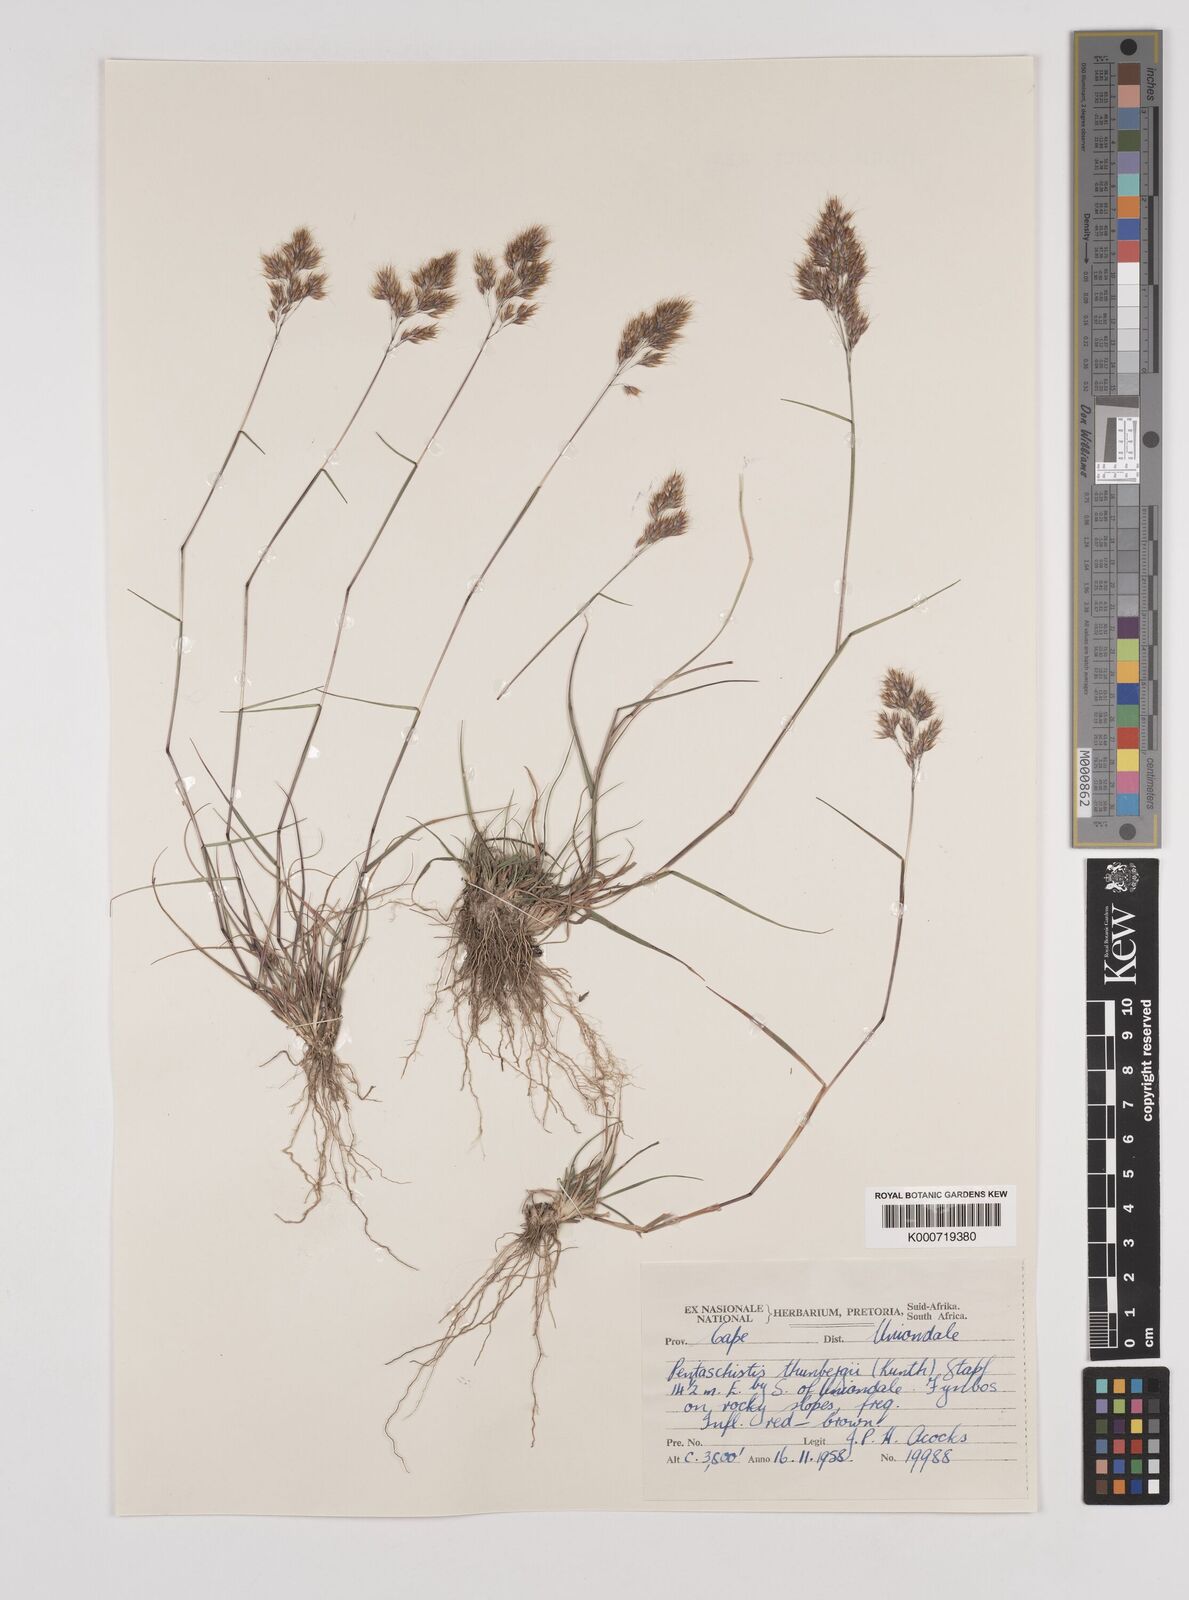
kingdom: Plantae
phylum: Tracheophyta
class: Liliopsida
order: Poales
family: Poaceae
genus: Pentameris
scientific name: Pentameris triseta
